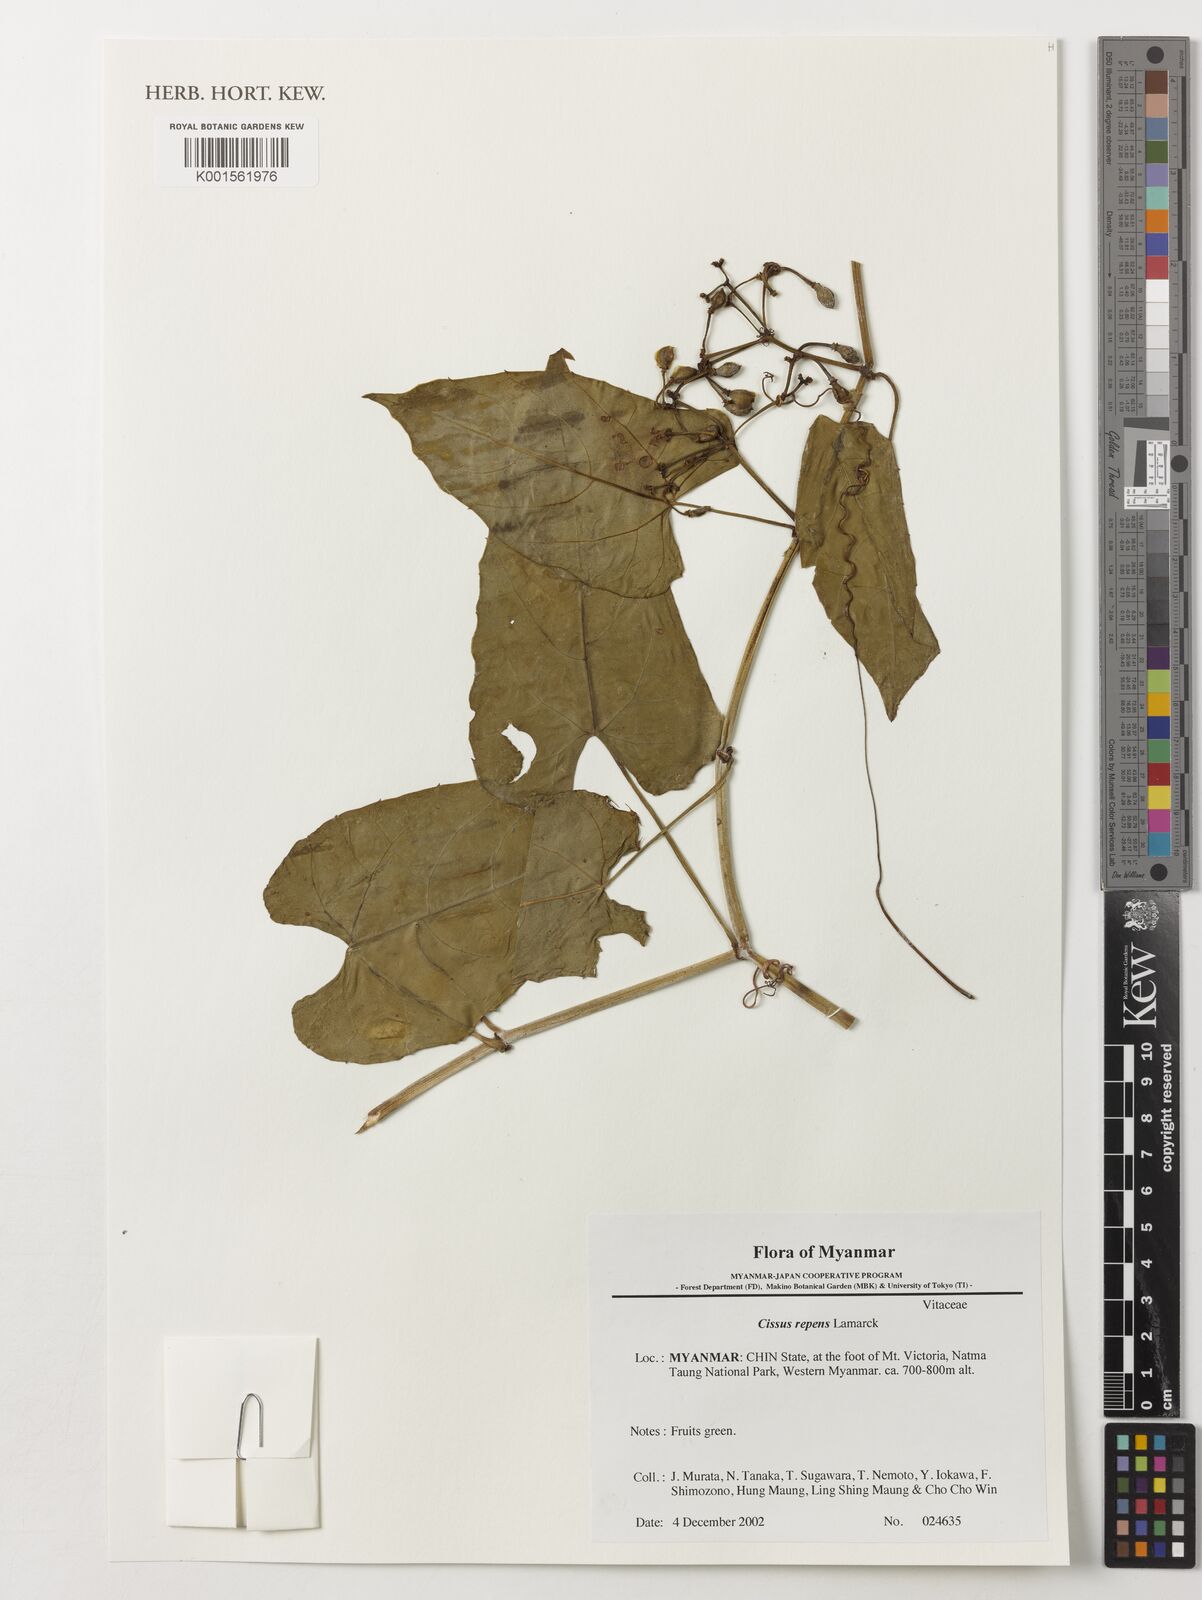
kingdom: Plantae
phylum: Tracheophyta
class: Magnoliopsida
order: Vitales
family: Vitaceae
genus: Cissus
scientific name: Cissus repens
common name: Cissus
